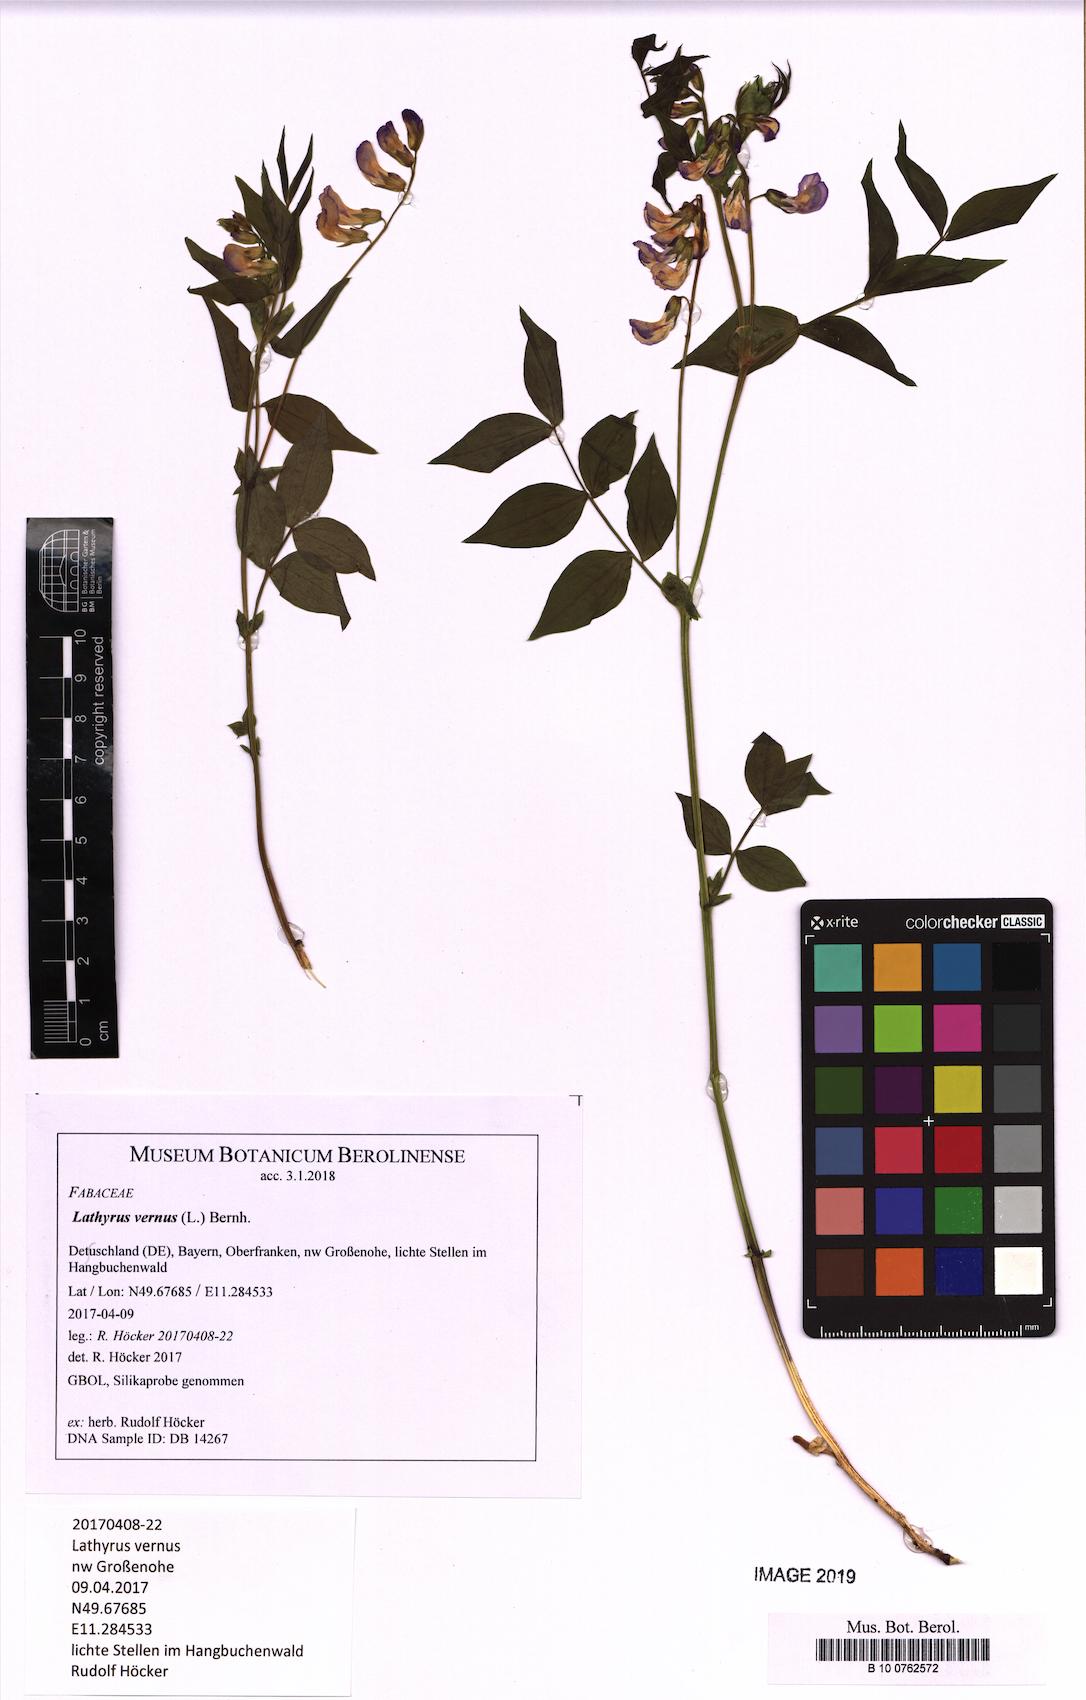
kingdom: Plantae
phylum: Tracheophyta
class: Magnoliopsida
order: Fabales
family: Fabaceae
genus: Lathyrus
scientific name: Lathyrus vernus
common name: Spring pea
